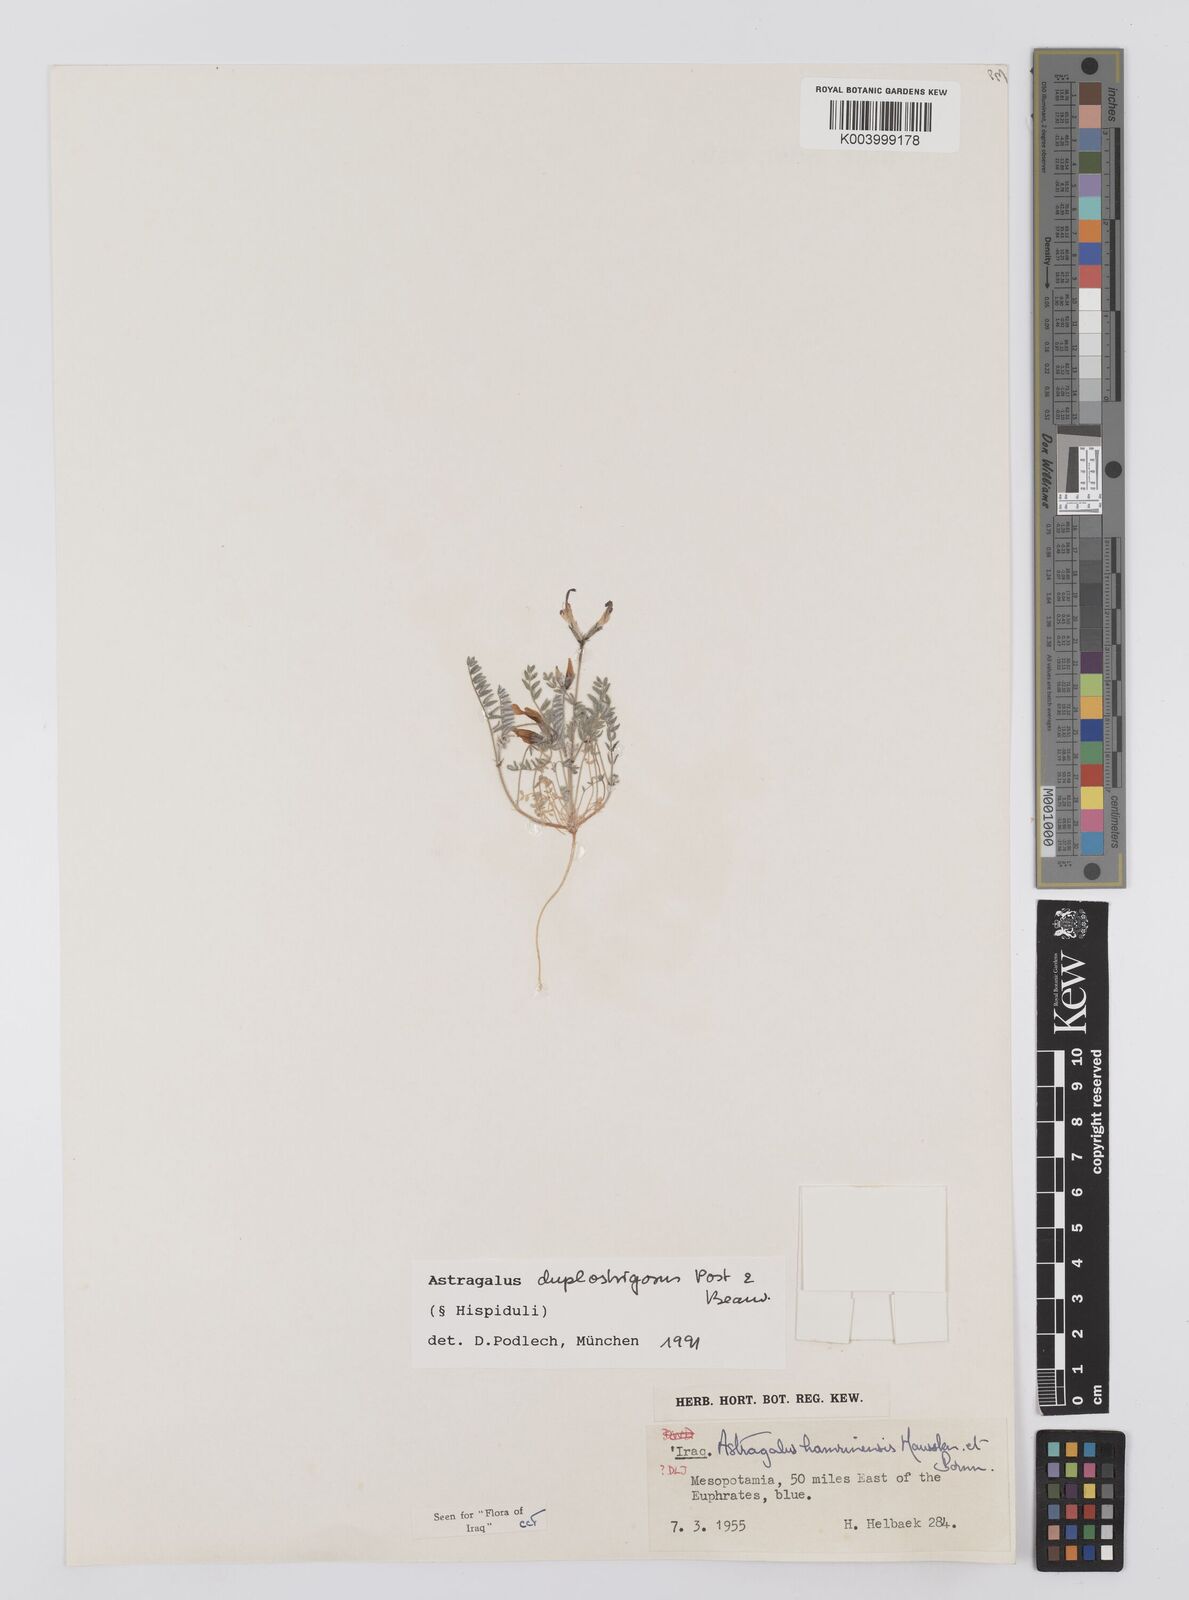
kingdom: Plantae
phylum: Tracheophyta
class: Magnoliopsida
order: Fabales
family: Fabaceae
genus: Astragalus
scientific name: Astragalus duplostrigosus
